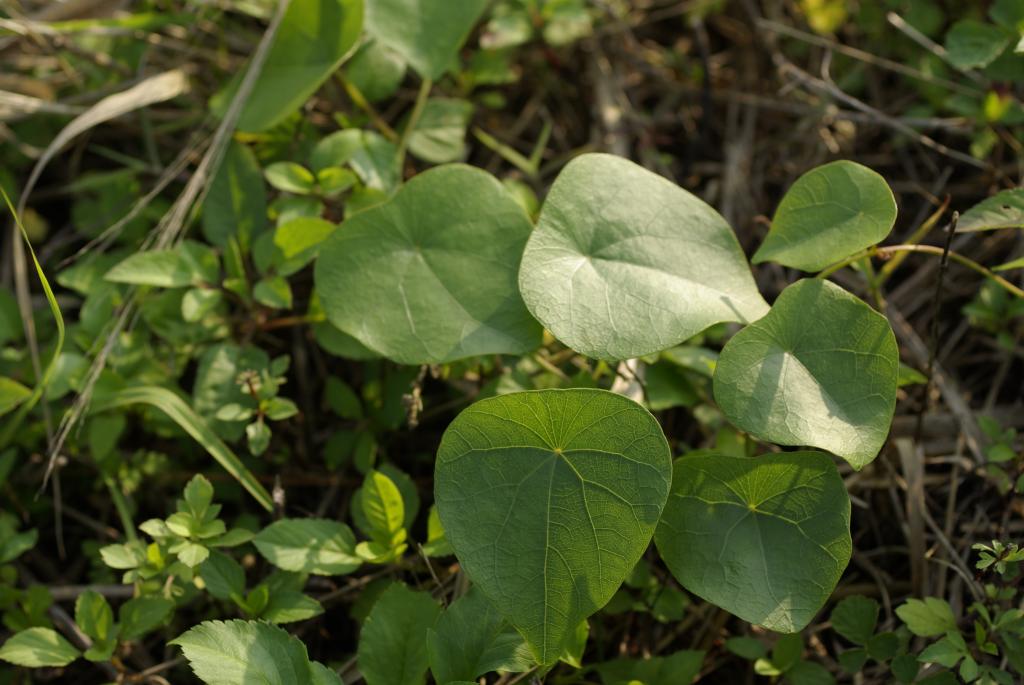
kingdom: Plantae
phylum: Tracheophyta
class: Magnoliopsida
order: Ranunculales
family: Menispermaceae
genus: Stephania
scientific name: Stephania japonica
